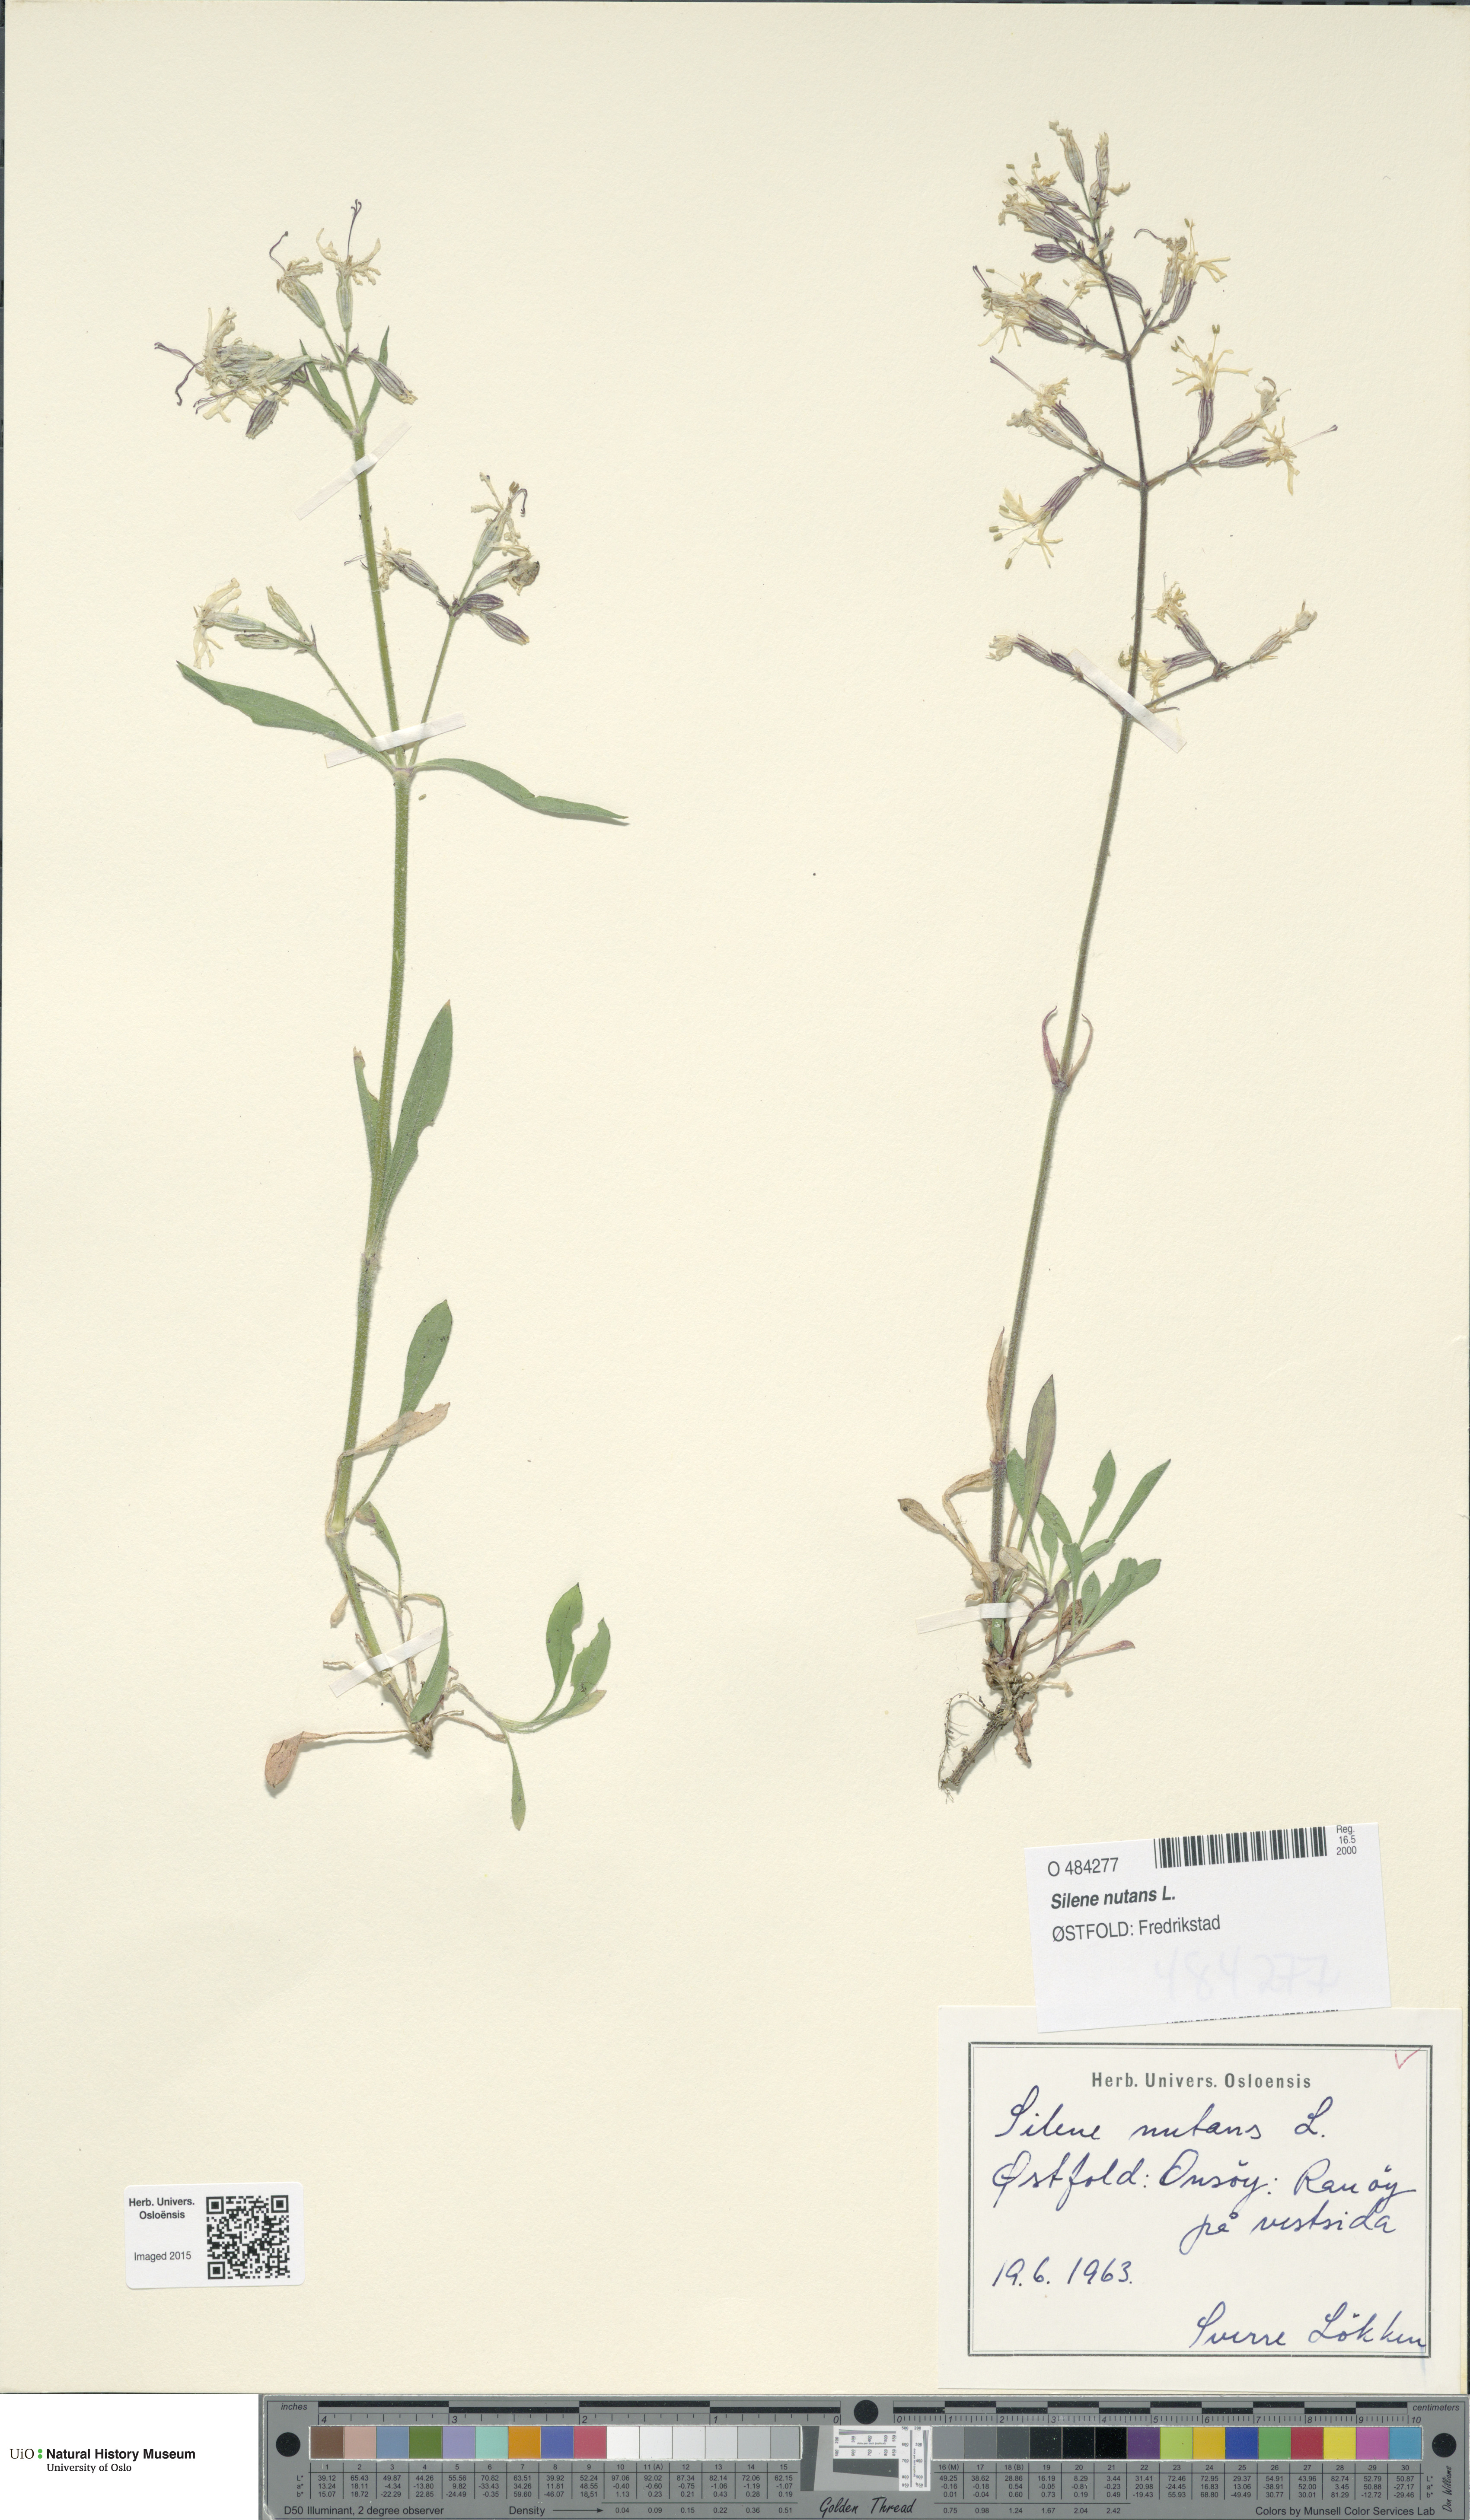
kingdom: Plantae
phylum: Tracheophyta
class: Magnoliopsida
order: Caryophyllales
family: Caryophyllaceae
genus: Silene
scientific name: Silene nutans
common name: Nottingham catchfly
